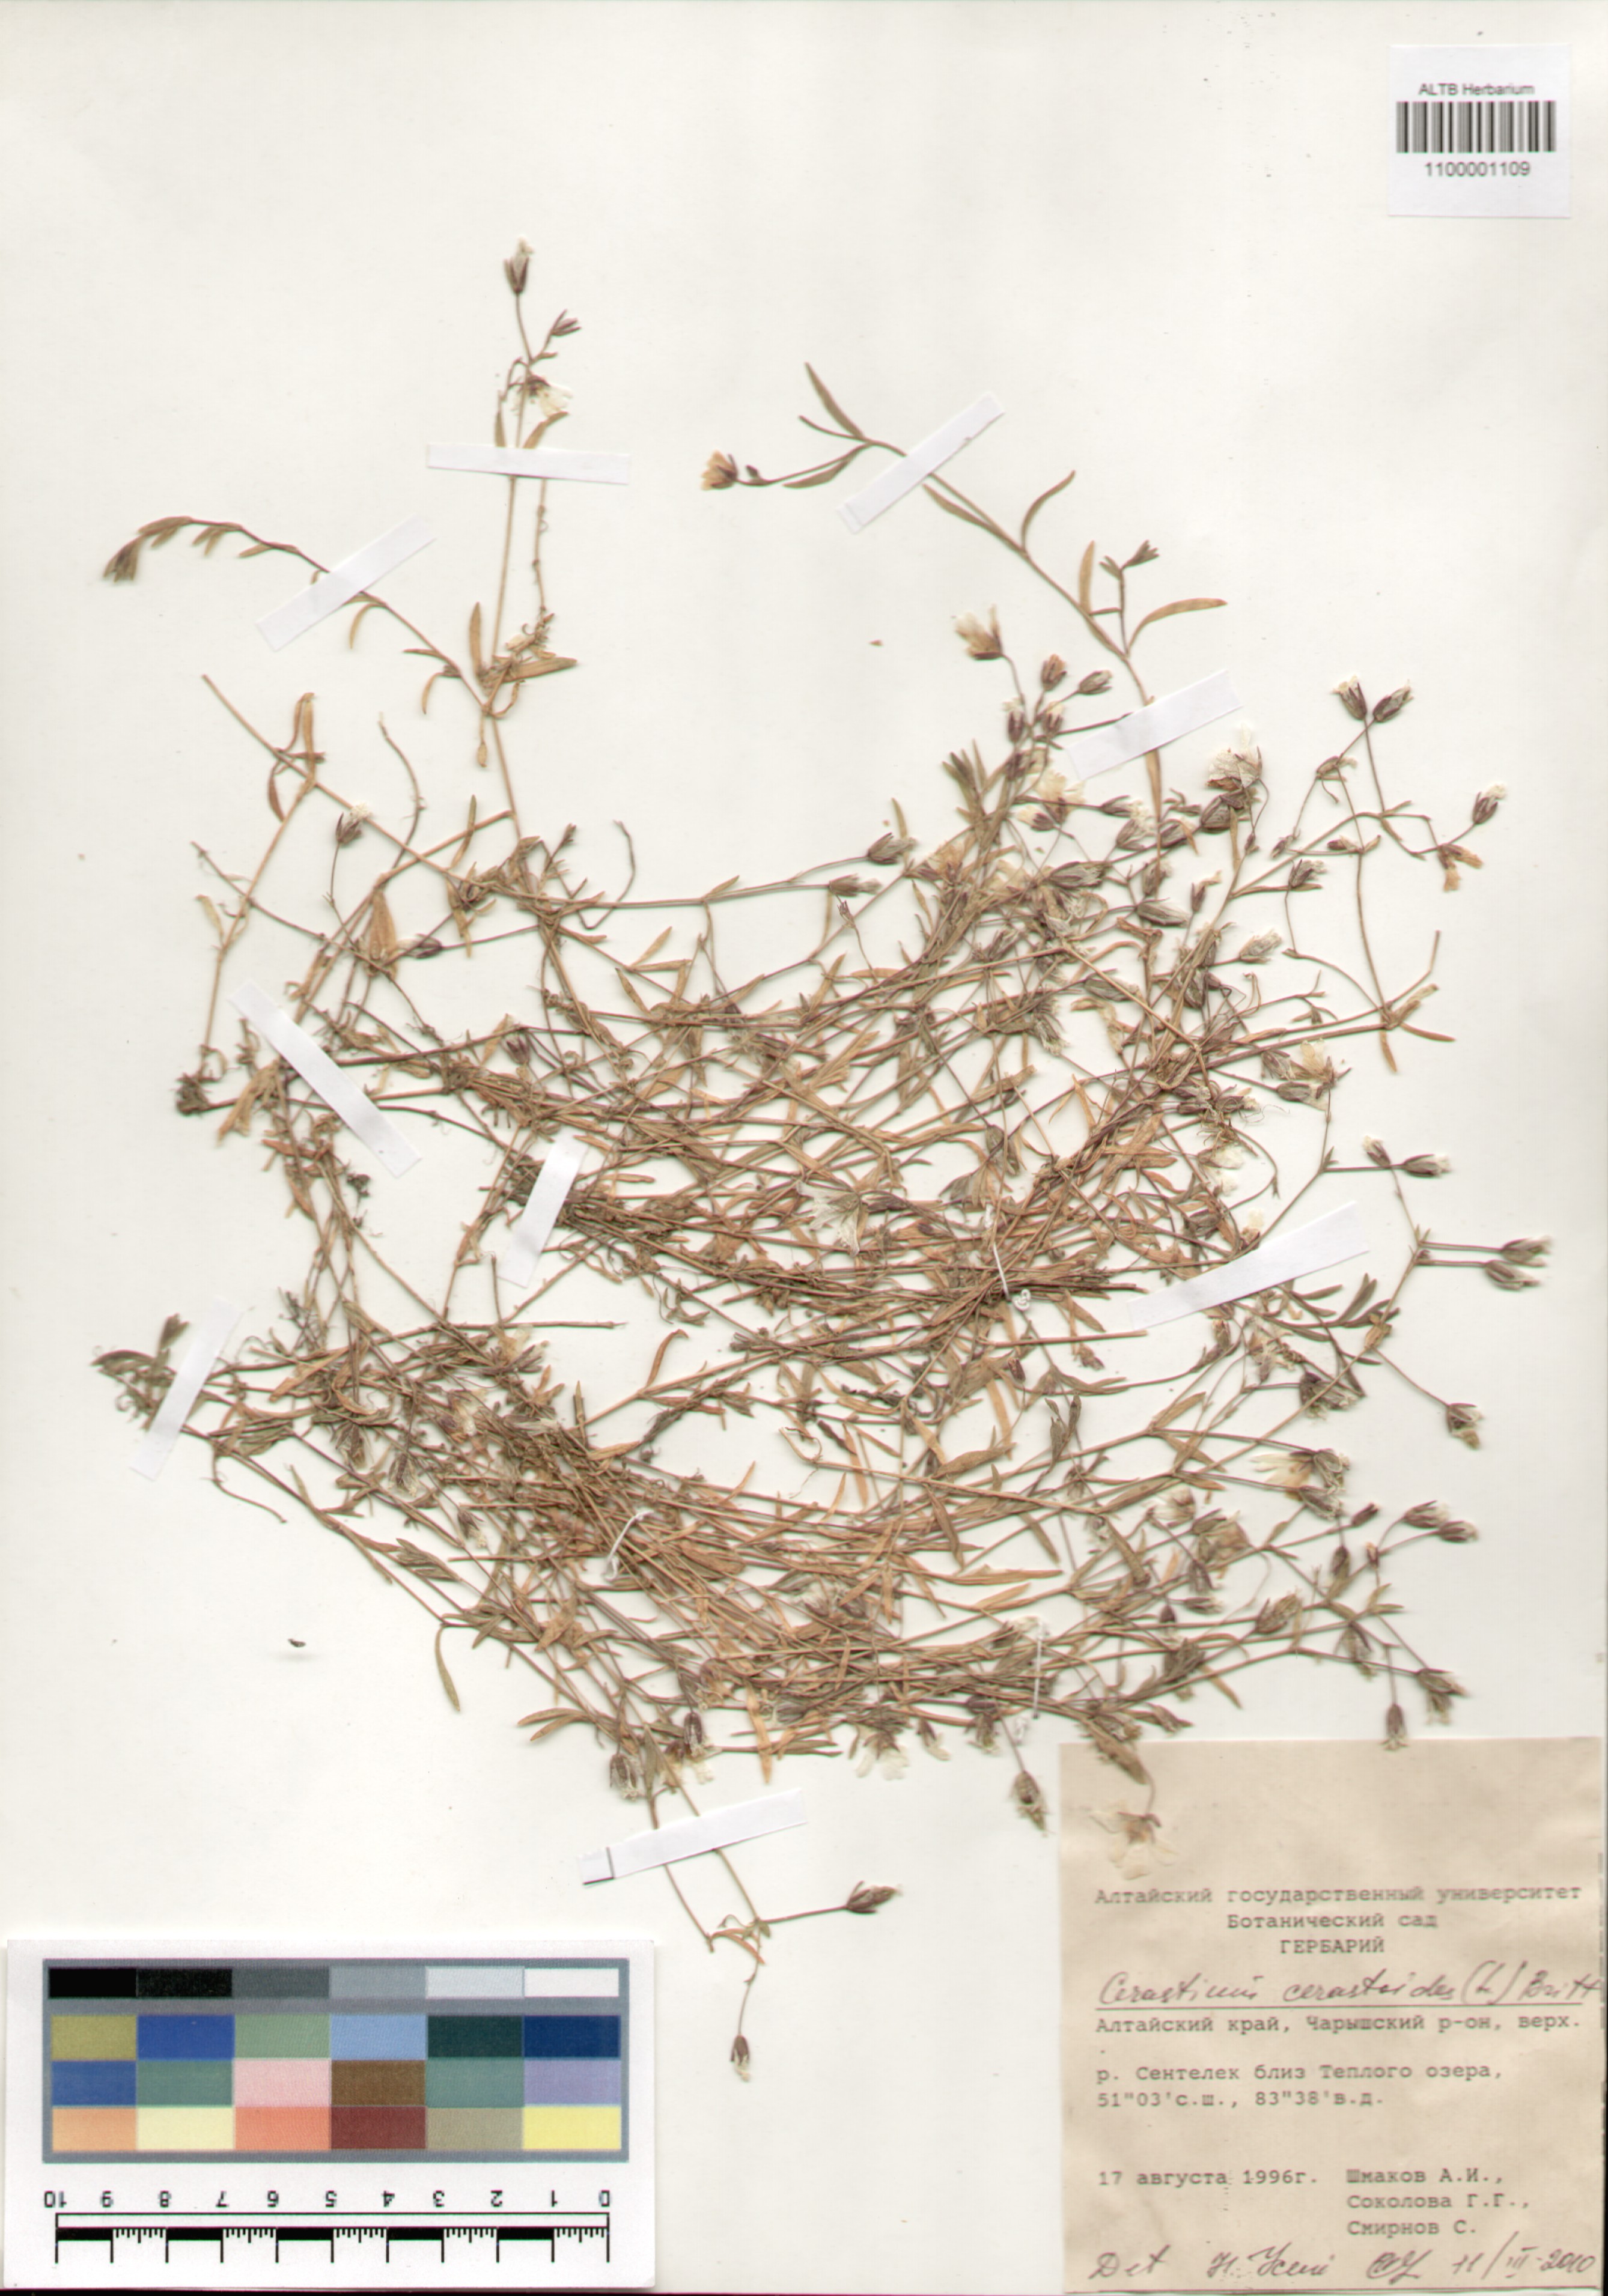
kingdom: Plantae
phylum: Tracheophyta
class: Magnoliopsida
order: Caryophyllales
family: Caryophyllaceae
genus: Dichodon
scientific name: Dichodon cerastoides
